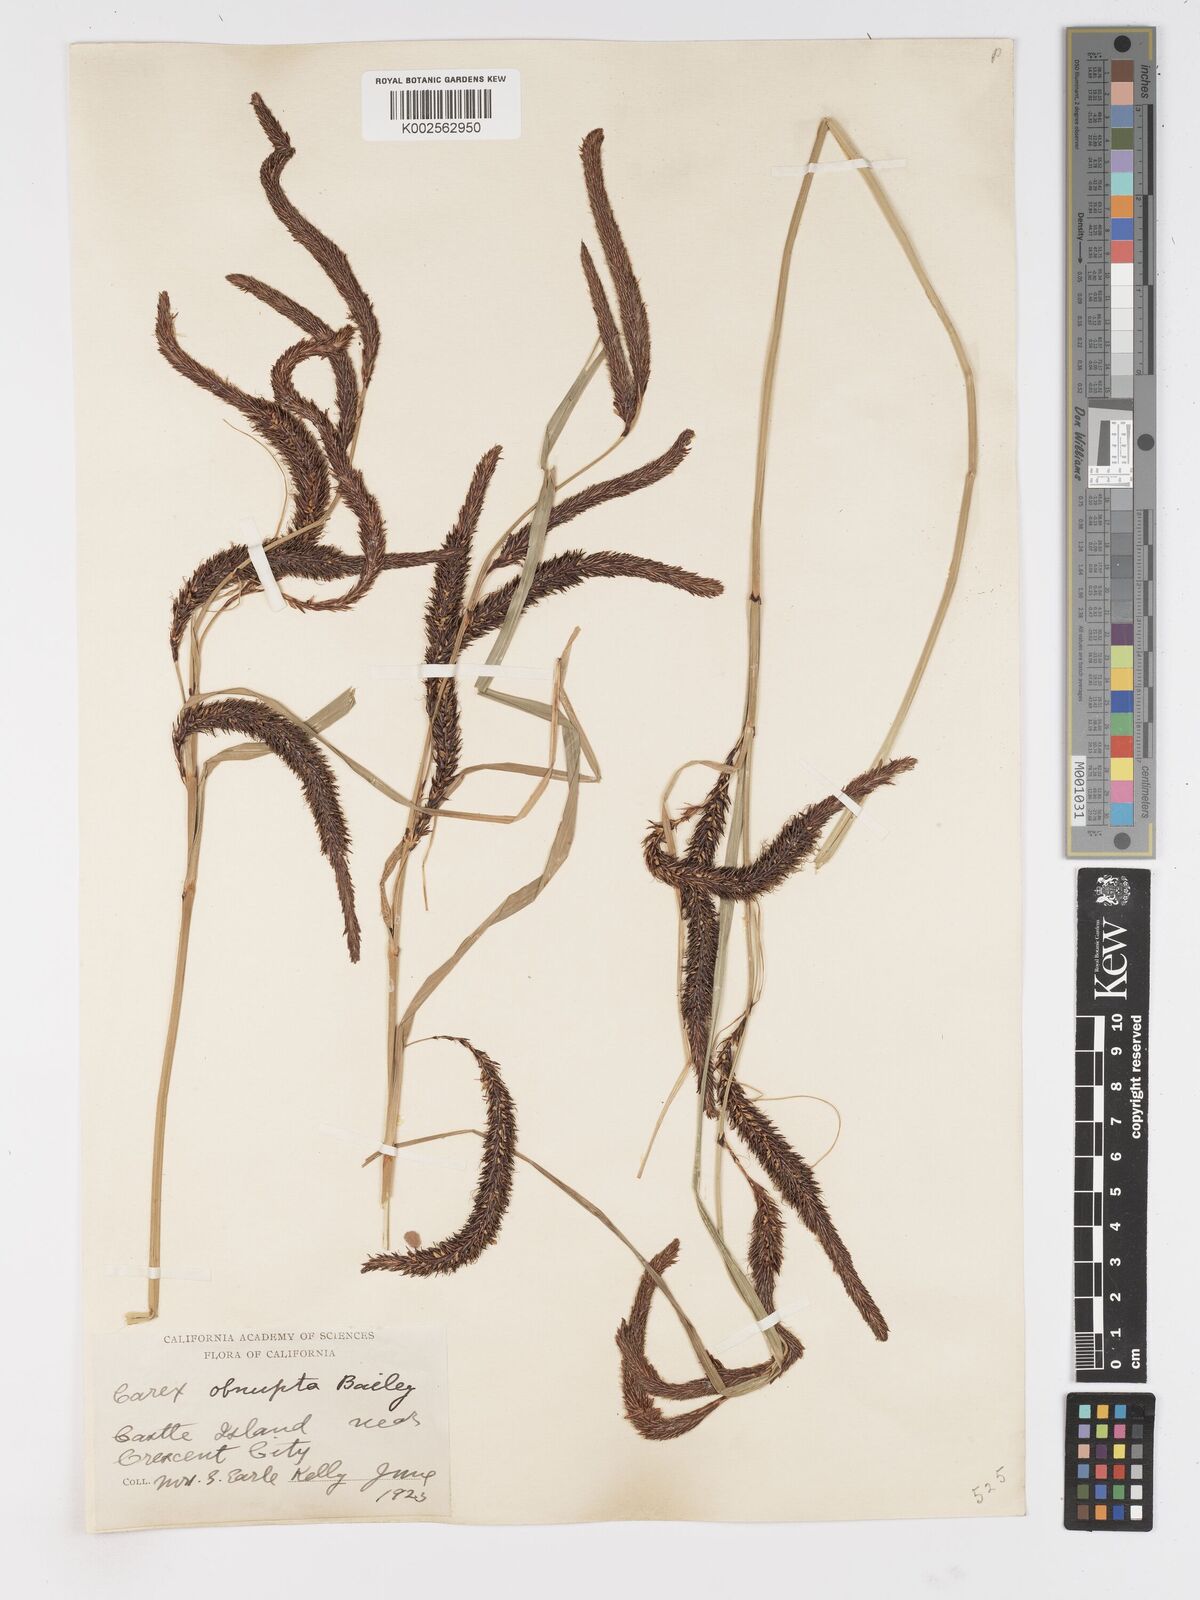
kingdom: Plantae
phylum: Tracheophyta
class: Liliopsida
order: Poales
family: Cyperaceae
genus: Carex
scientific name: Carex obnupta
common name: Slough sedge
